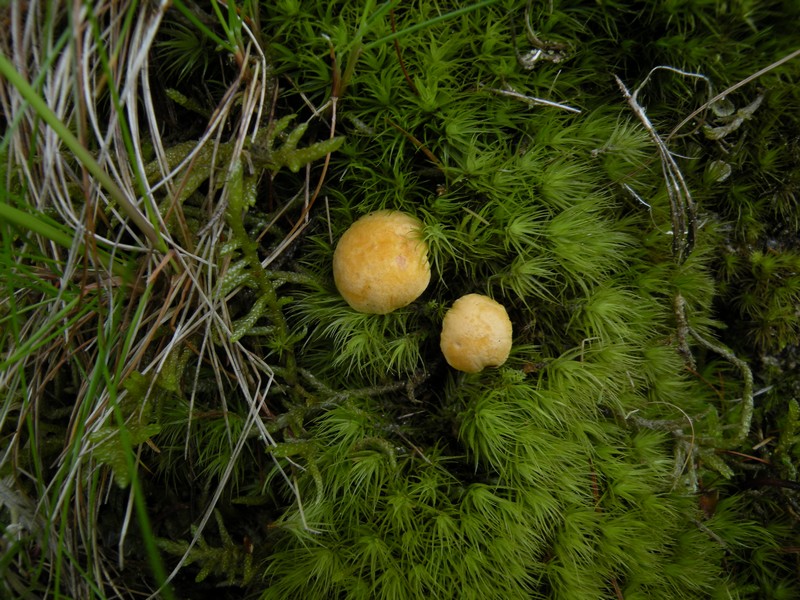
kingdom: Fungi
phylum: Basidiomycota
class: Agaricomycetes
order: Cantharellales
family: Hydnaceae
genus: Cantharellus
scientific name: Cantharellus cibarius
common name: almindelig kantarel
